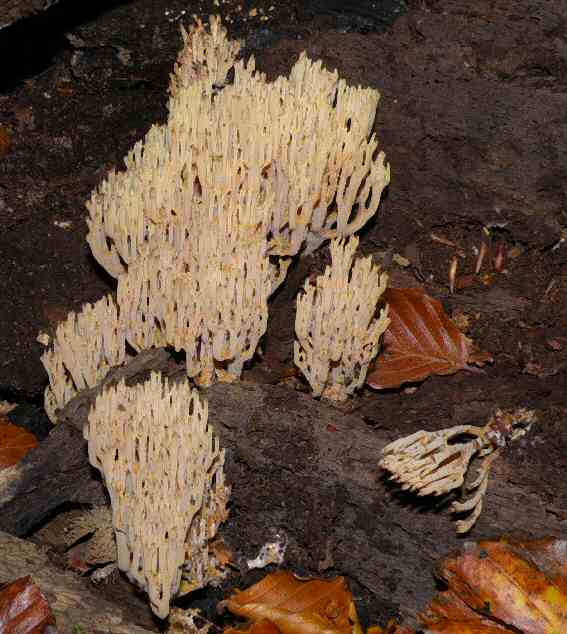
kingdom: Fungi
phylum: Basidiomycota
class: Agaricomycetes
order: Gomphales
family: Gomphaceae
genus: Ramaria
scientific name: Ramaria stricta
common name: rank koralsvamp
